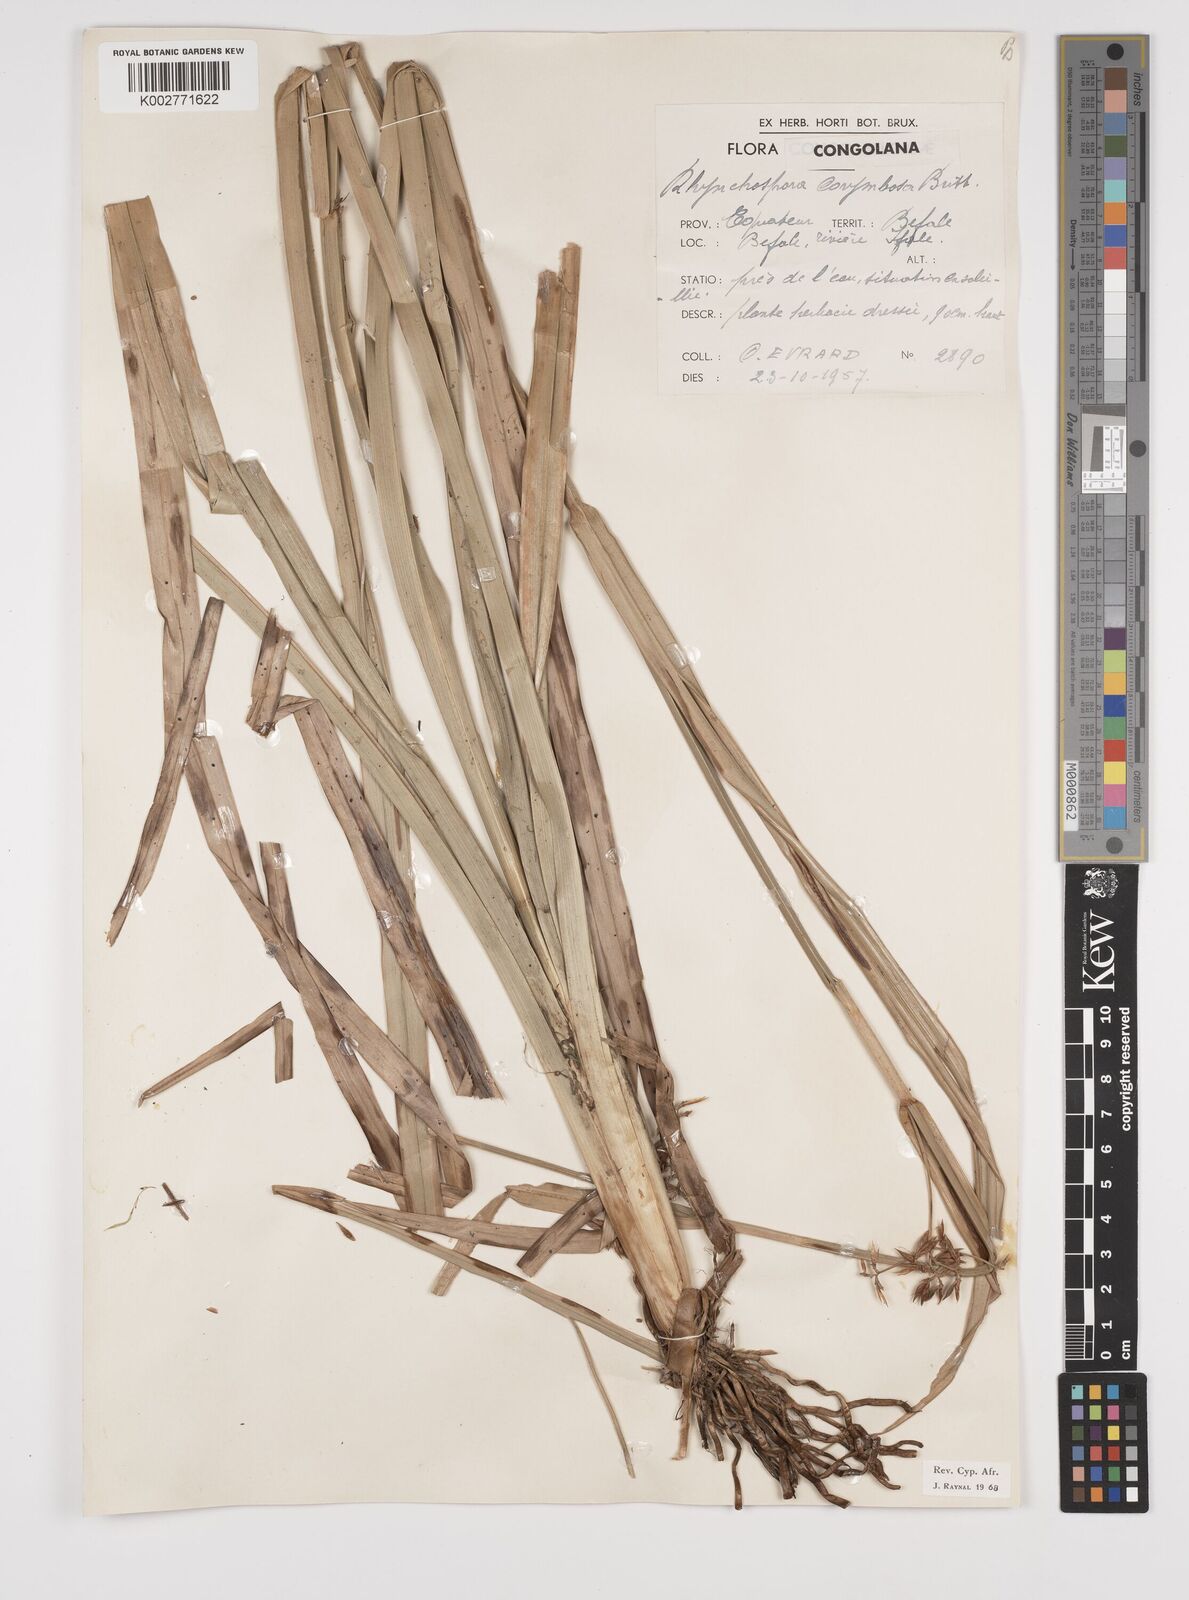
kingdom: Plantae
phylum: Tracheophyta
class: Liliopsida
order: Poales
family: Cyperaceae
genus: Rhynchospora
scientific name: Rhynchospora corymbosa
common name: Golden beak sedge
